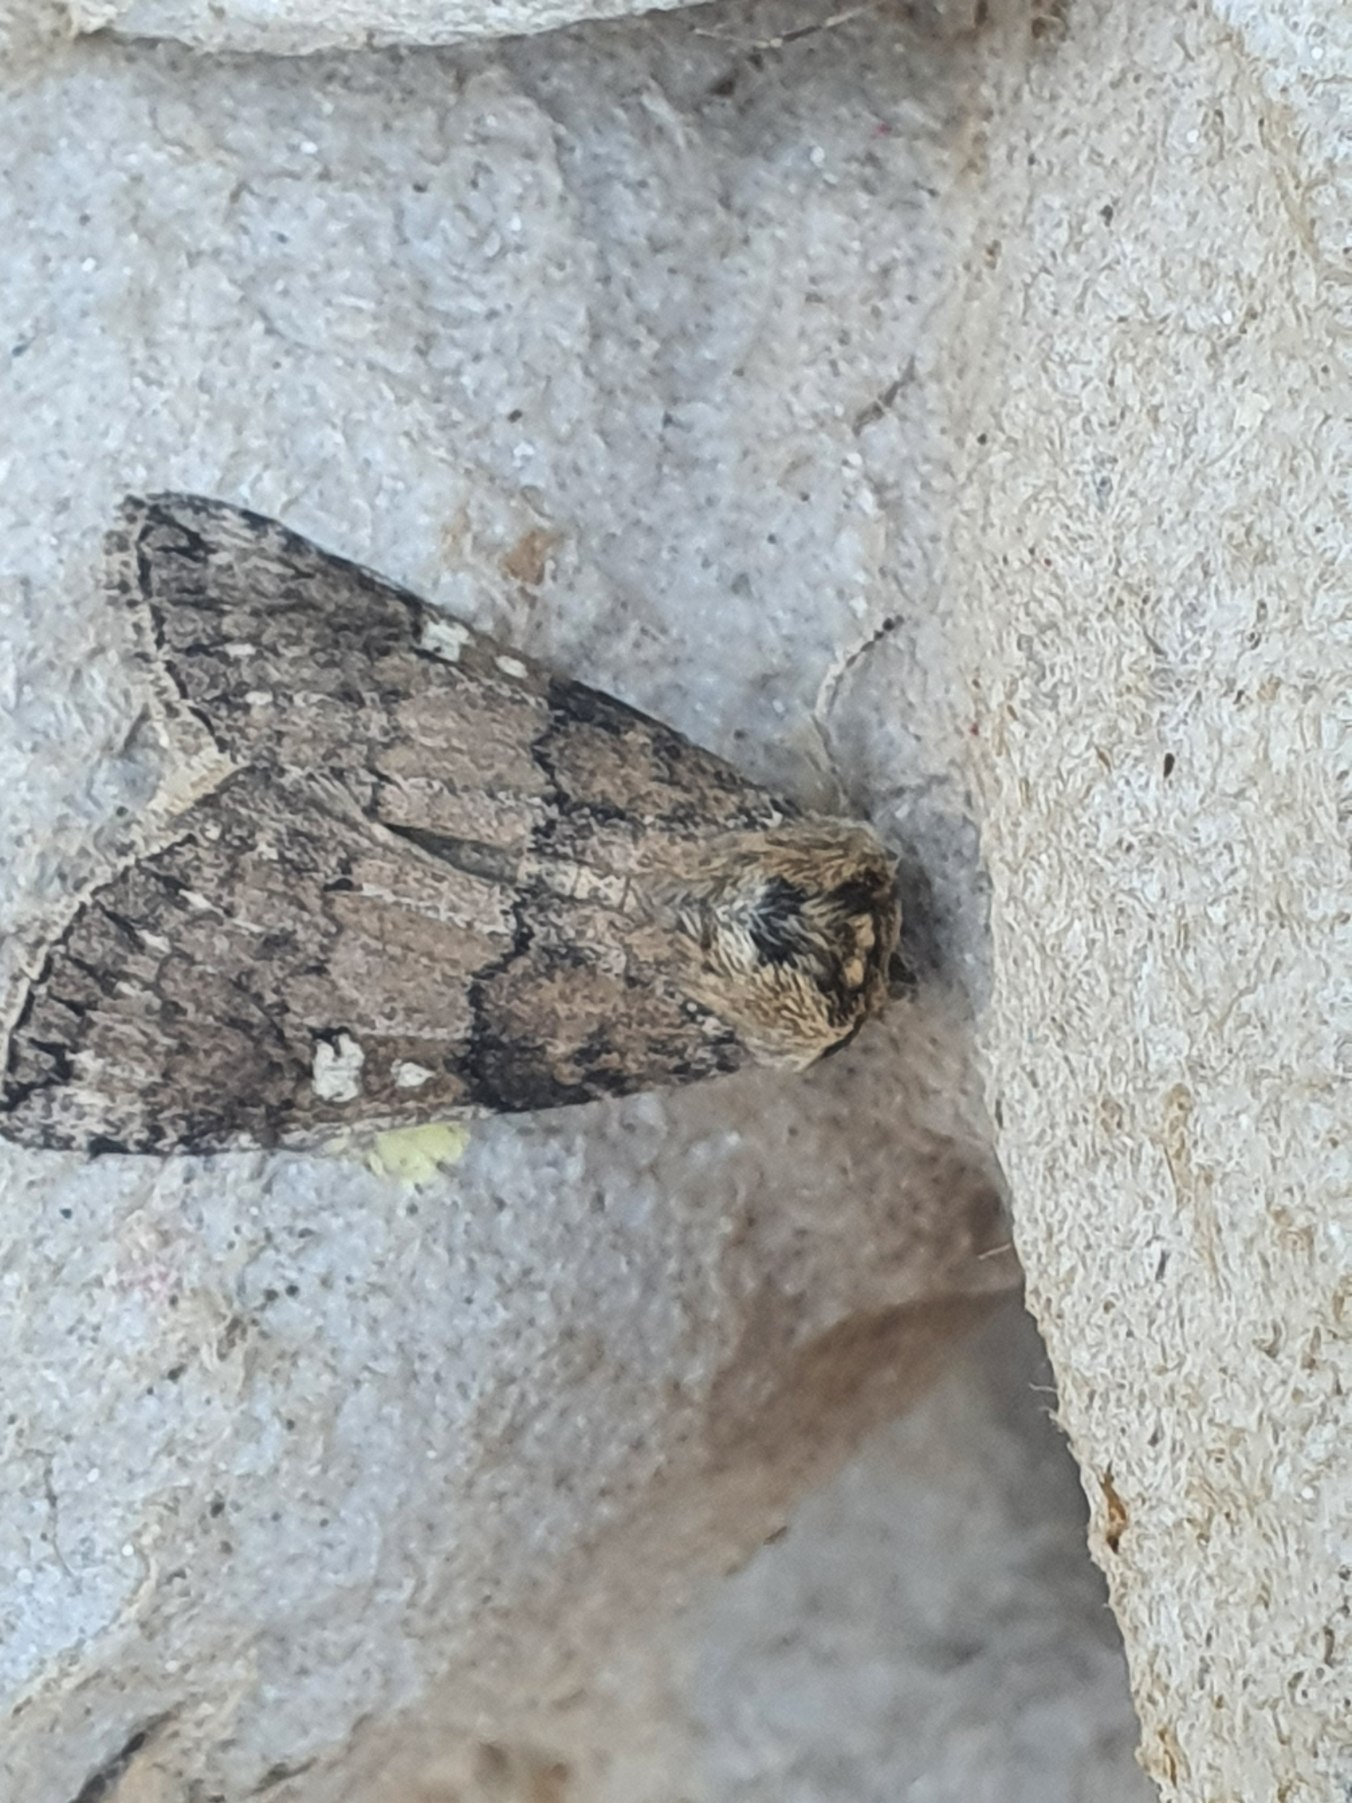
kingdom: Animalia
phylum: Arthropoda
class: Insecta
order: Lepidoptera
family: Drepanidae
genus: Tethea
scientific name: Tethea or
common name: Bogstav-uglespinder
